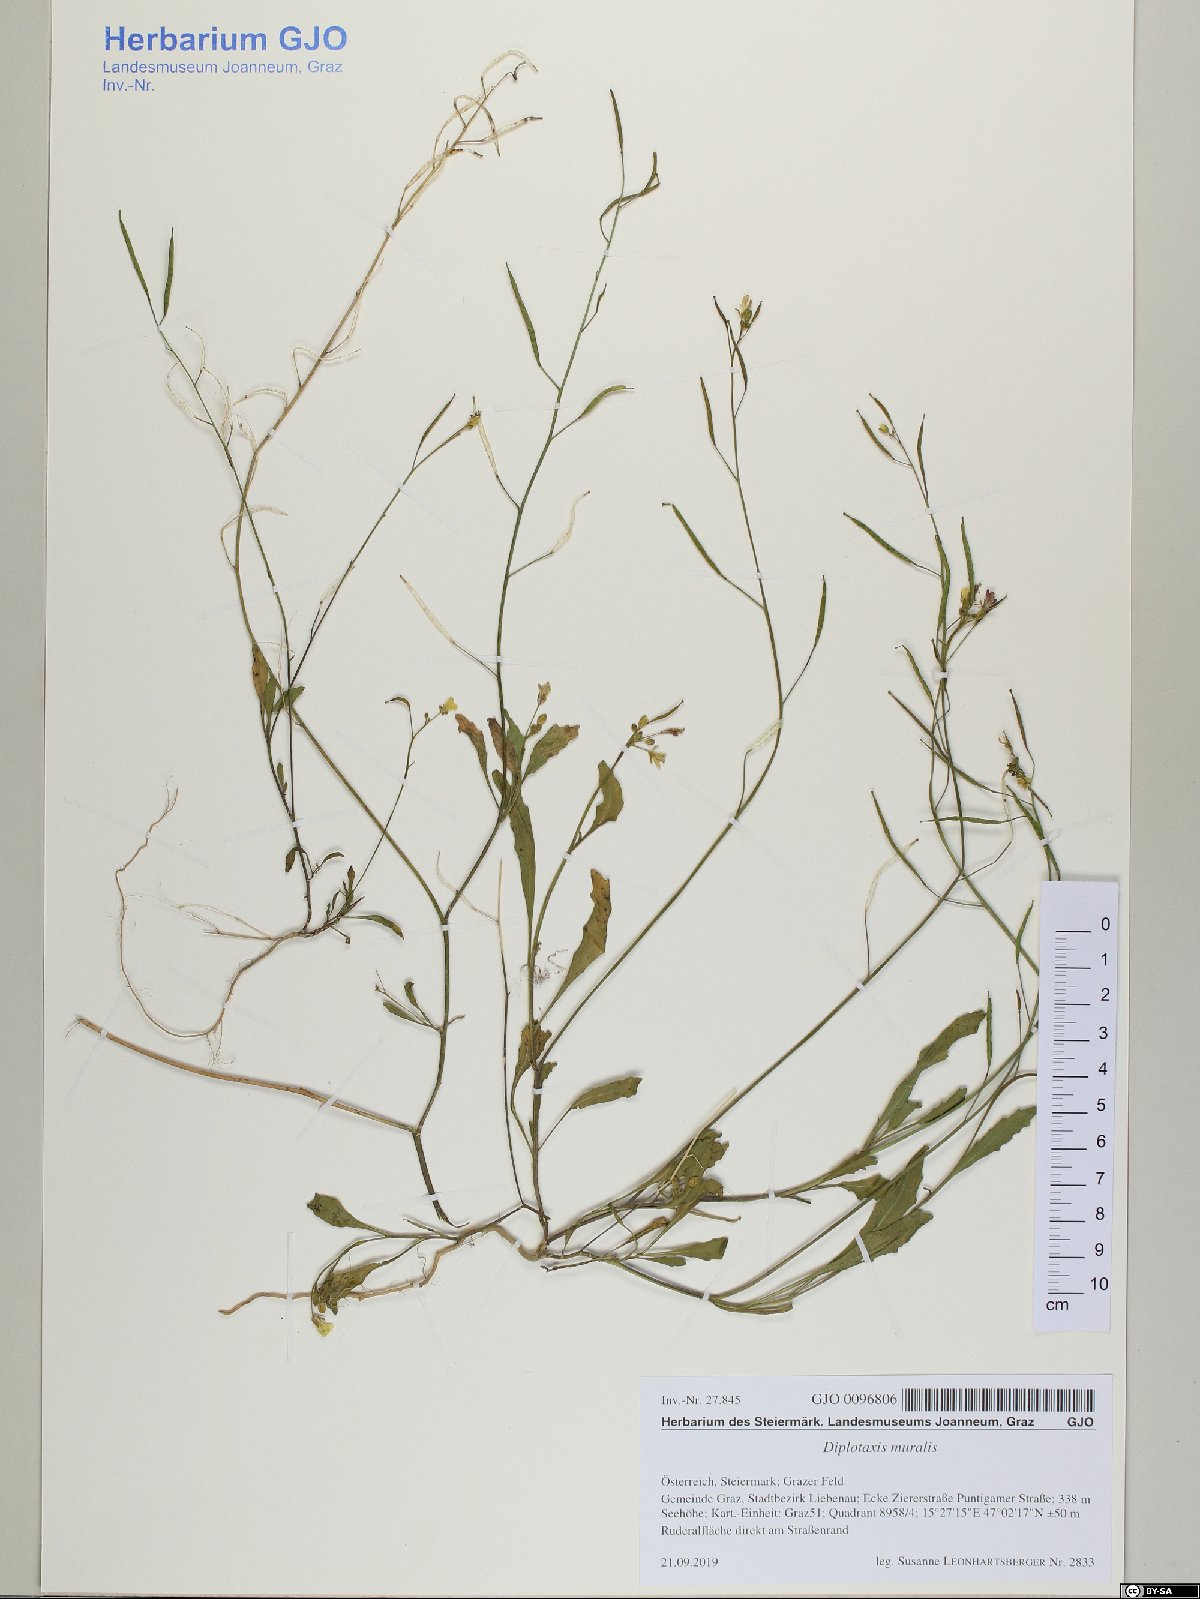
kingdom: Plantae
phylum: Tracheophyta
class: Magnoliopsida
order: Brassicales
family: Brassicaceae
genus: Diplotaxis
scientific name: Diplotaxis muralis
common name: Annual wall-rocket
